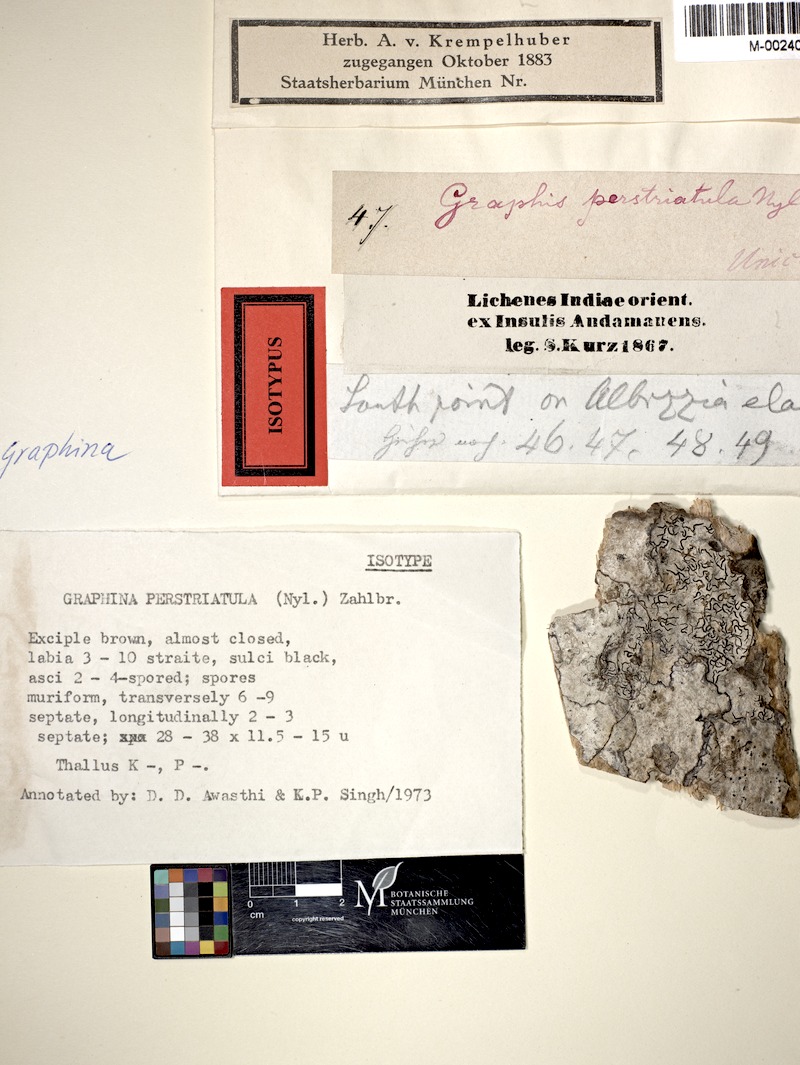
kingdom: Fungi
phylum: Ascomycota
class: Lecanoromycetes
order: Ostropales
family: Graphidaceae
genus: Graphis
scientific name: Graphis
